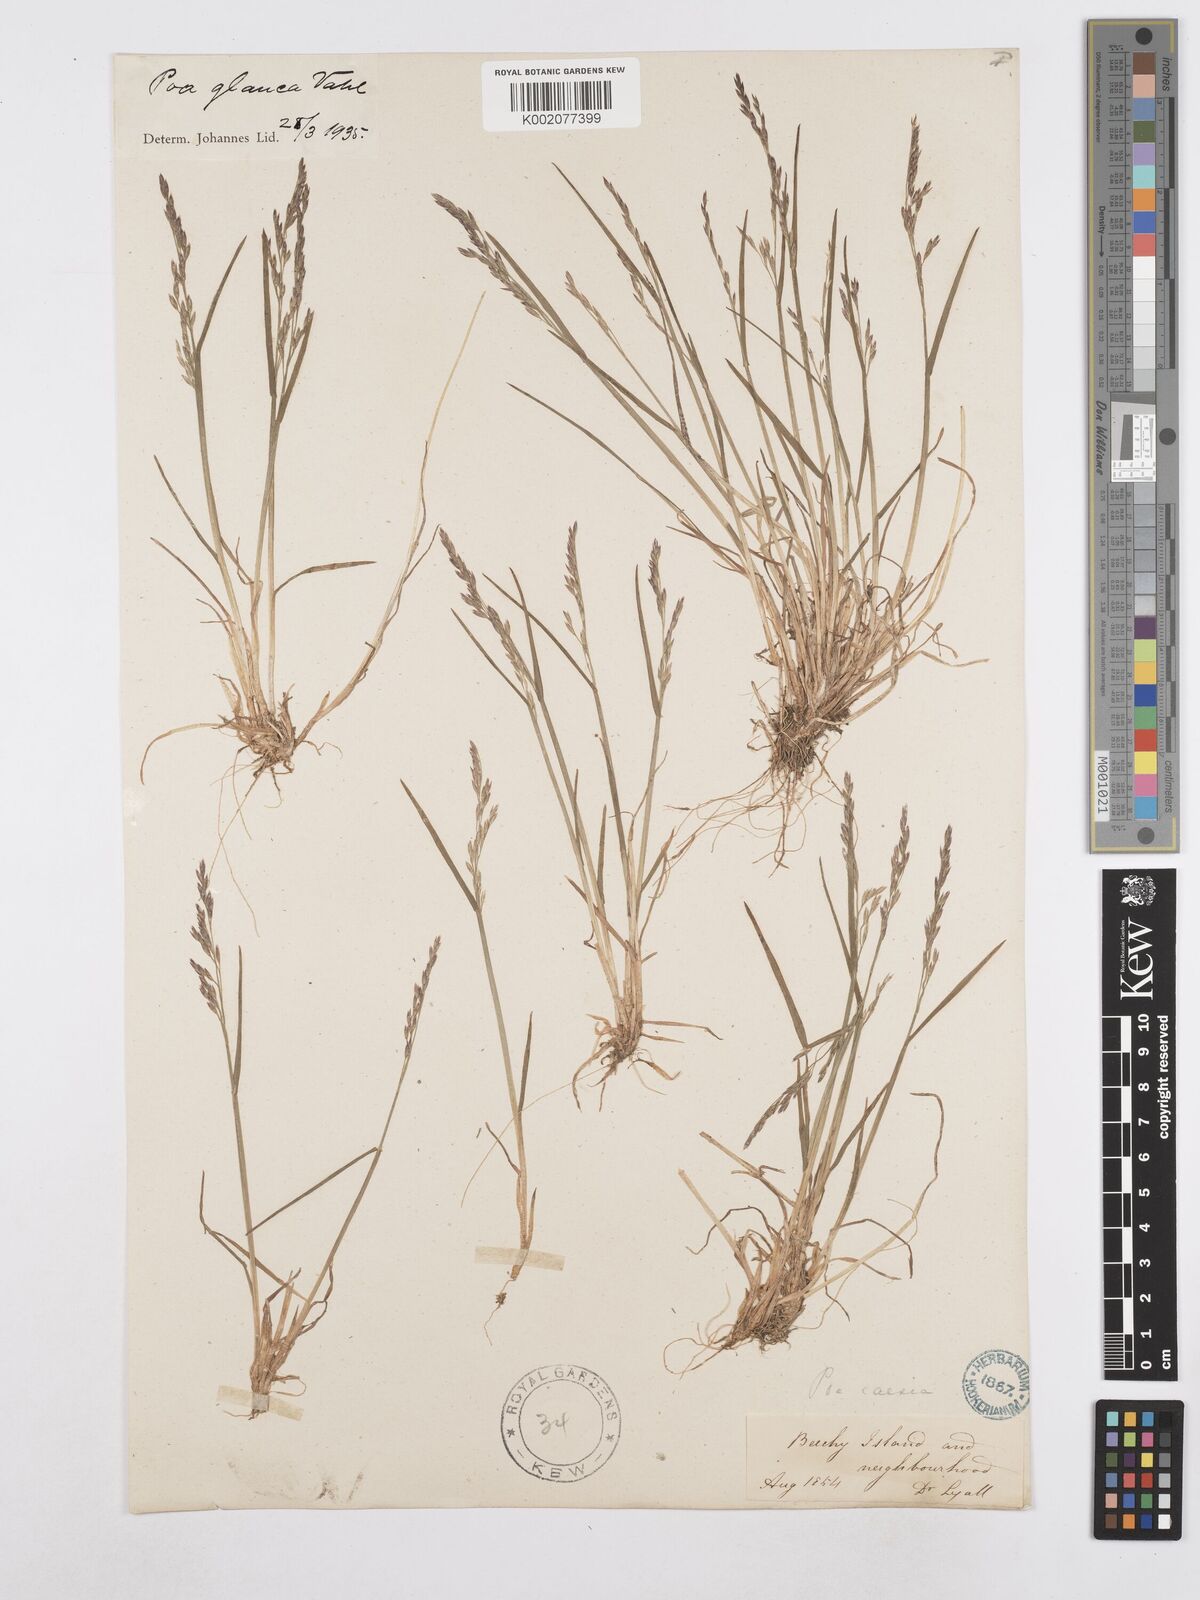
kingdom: Plantae
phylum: Tracheophyta
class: Liliopsida
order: Poales
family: Poaceae
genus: Poa
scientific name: Poa glauca
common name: Glaucous bluegrass
